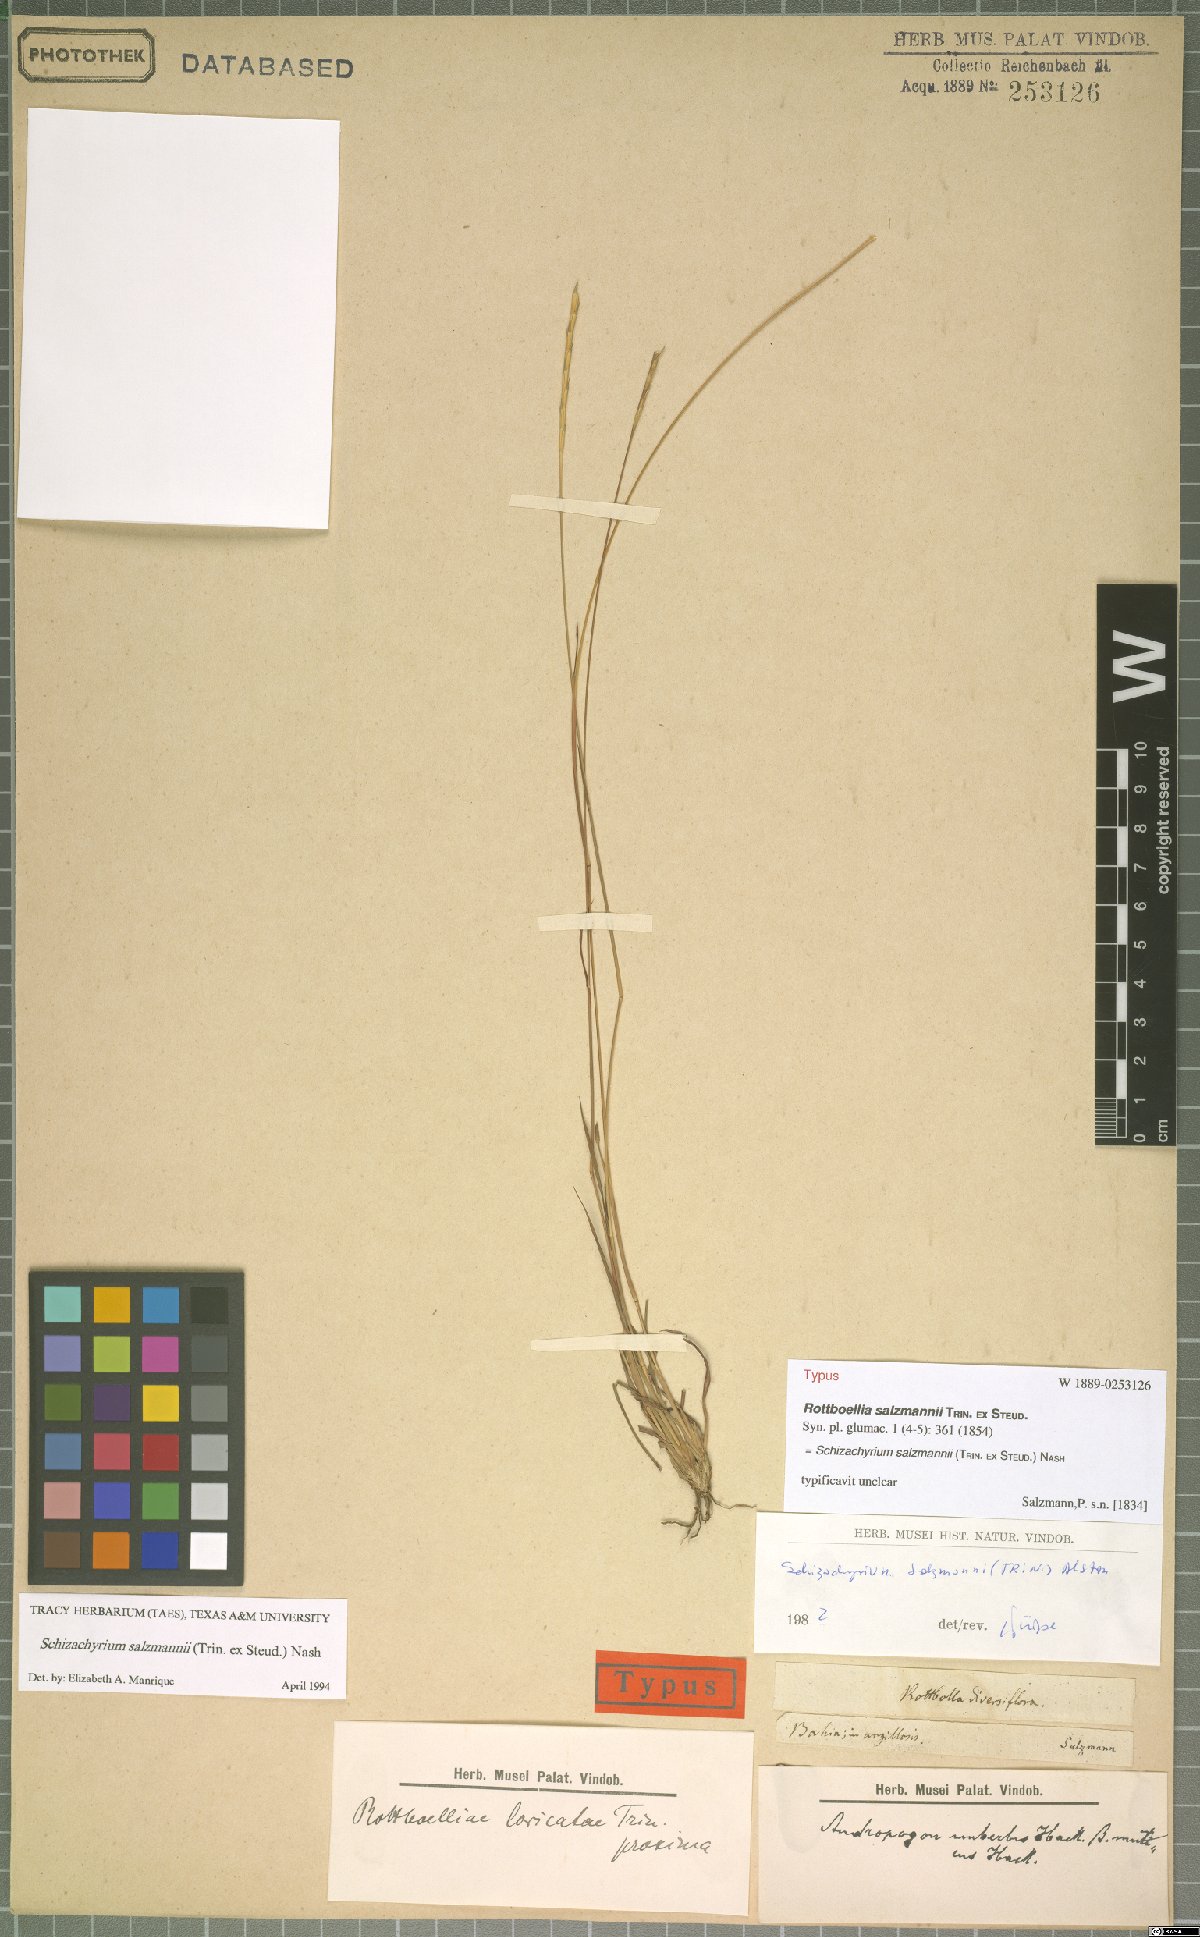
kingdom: Plantae
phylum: Tracheophyta
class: Liliopsida
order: Poales
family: Poaceae
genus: Andropogon
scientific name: Andropogon salzmannii
